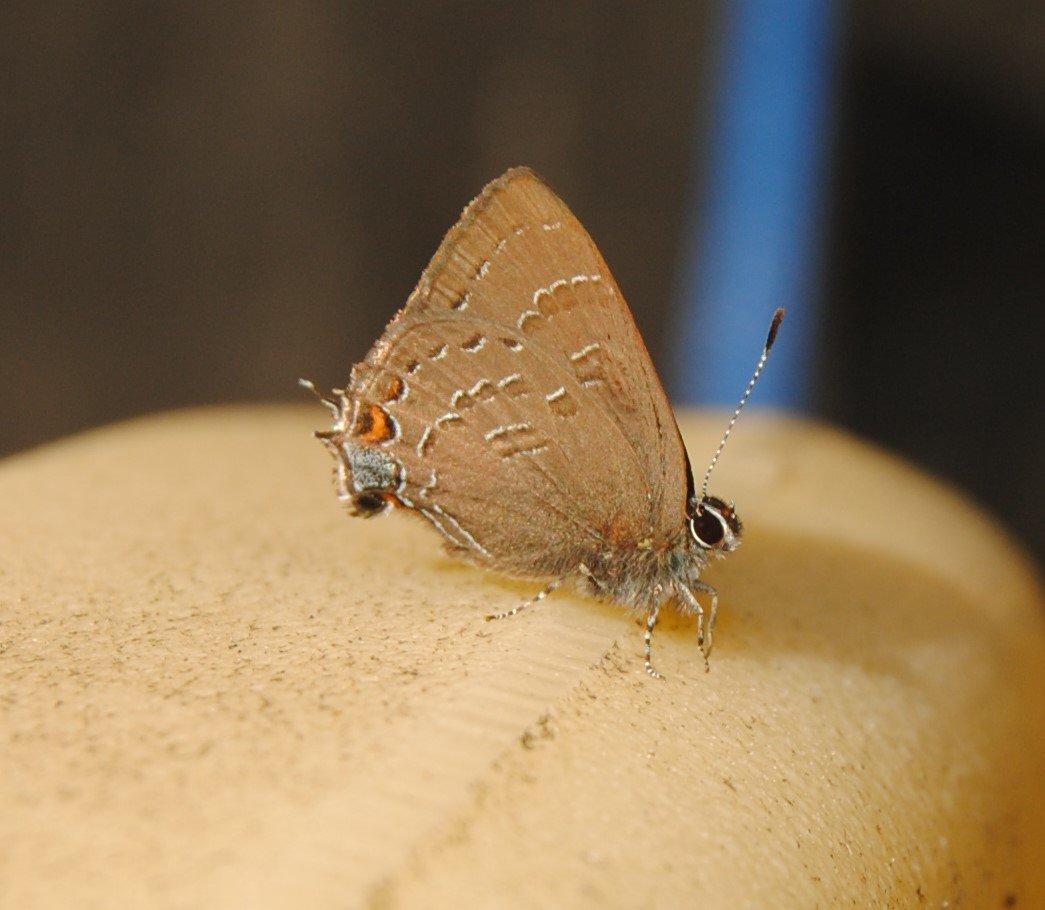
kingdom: Animalia
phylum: Arthropoda
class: Insecta
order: Lepidoptera
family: Lycaenidae
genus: Satyrium
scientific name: Satyrium calanus
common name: Banded Hairstreak
